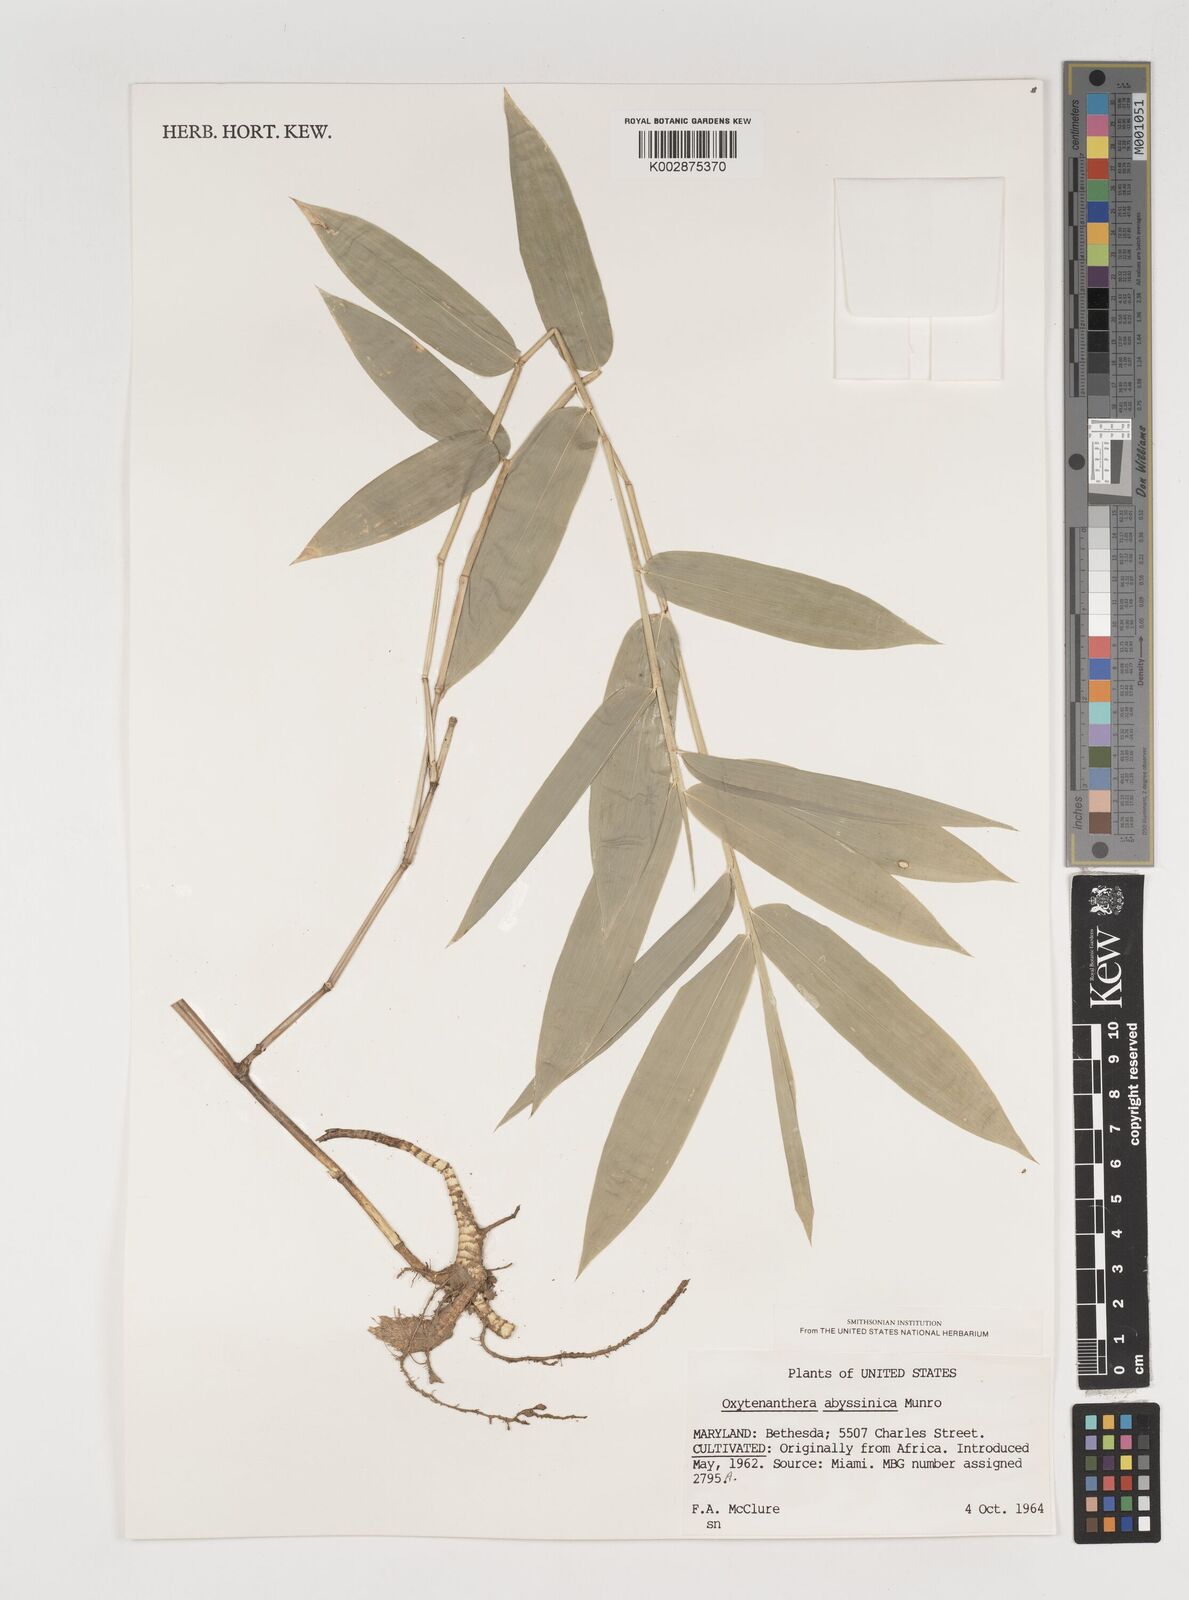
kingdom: Plantae
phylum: Tracheophyta
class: Liliopsida
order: Poales
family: Poaceae
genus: Oxytenanthera
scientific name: Oxytenanthera abyssinica
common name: Wine bamboo
